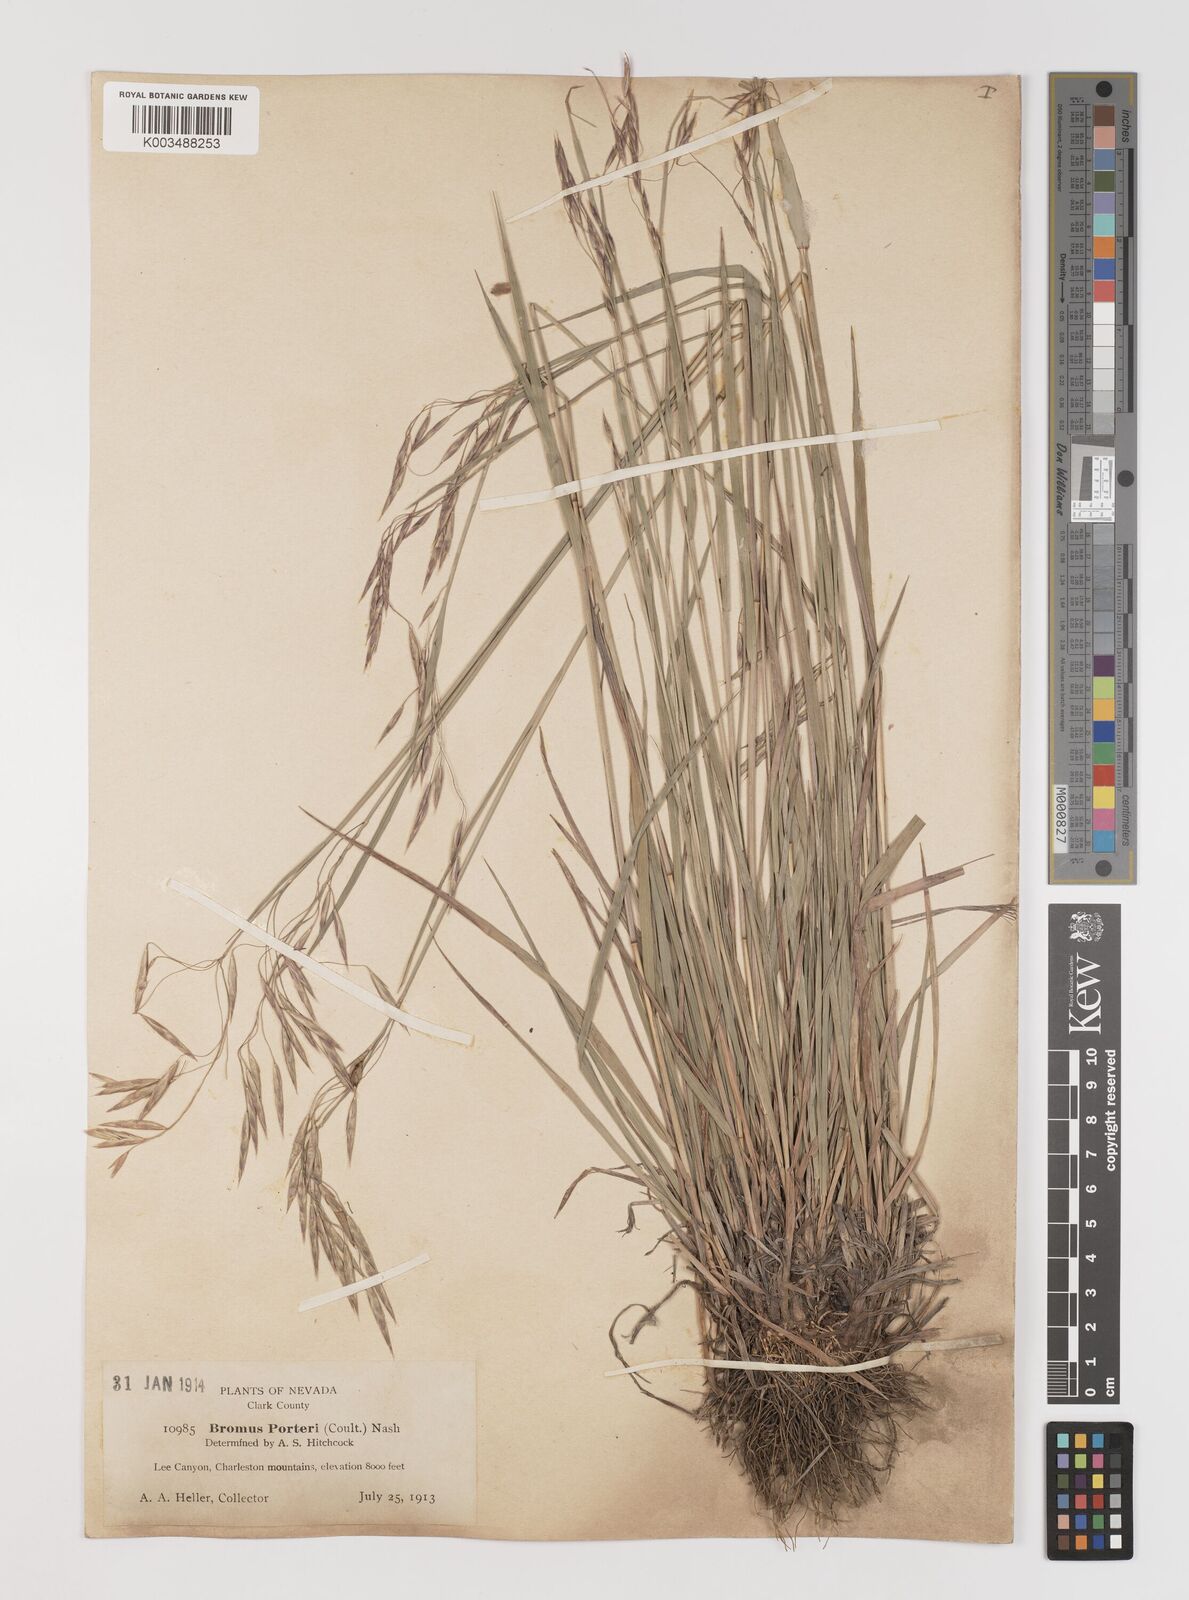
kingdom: Plantae
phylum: Tracheophyta
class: Liliopsida
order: Poales
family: Poaceae
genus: Bromus
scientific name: Bromus porteri
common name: Nodding brome
